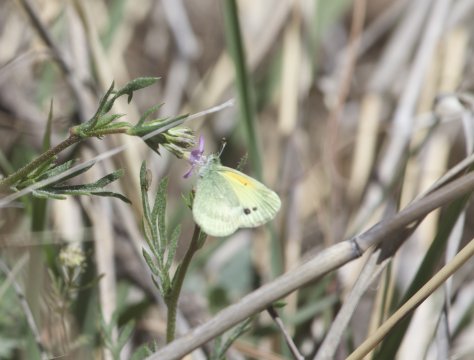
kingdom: Animalia
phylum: Arthropoda
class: Insecta
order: Lepidoptera
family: Pieridae
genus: Nathalis
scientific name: Nathalis iole
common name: Dainty Sulphur
